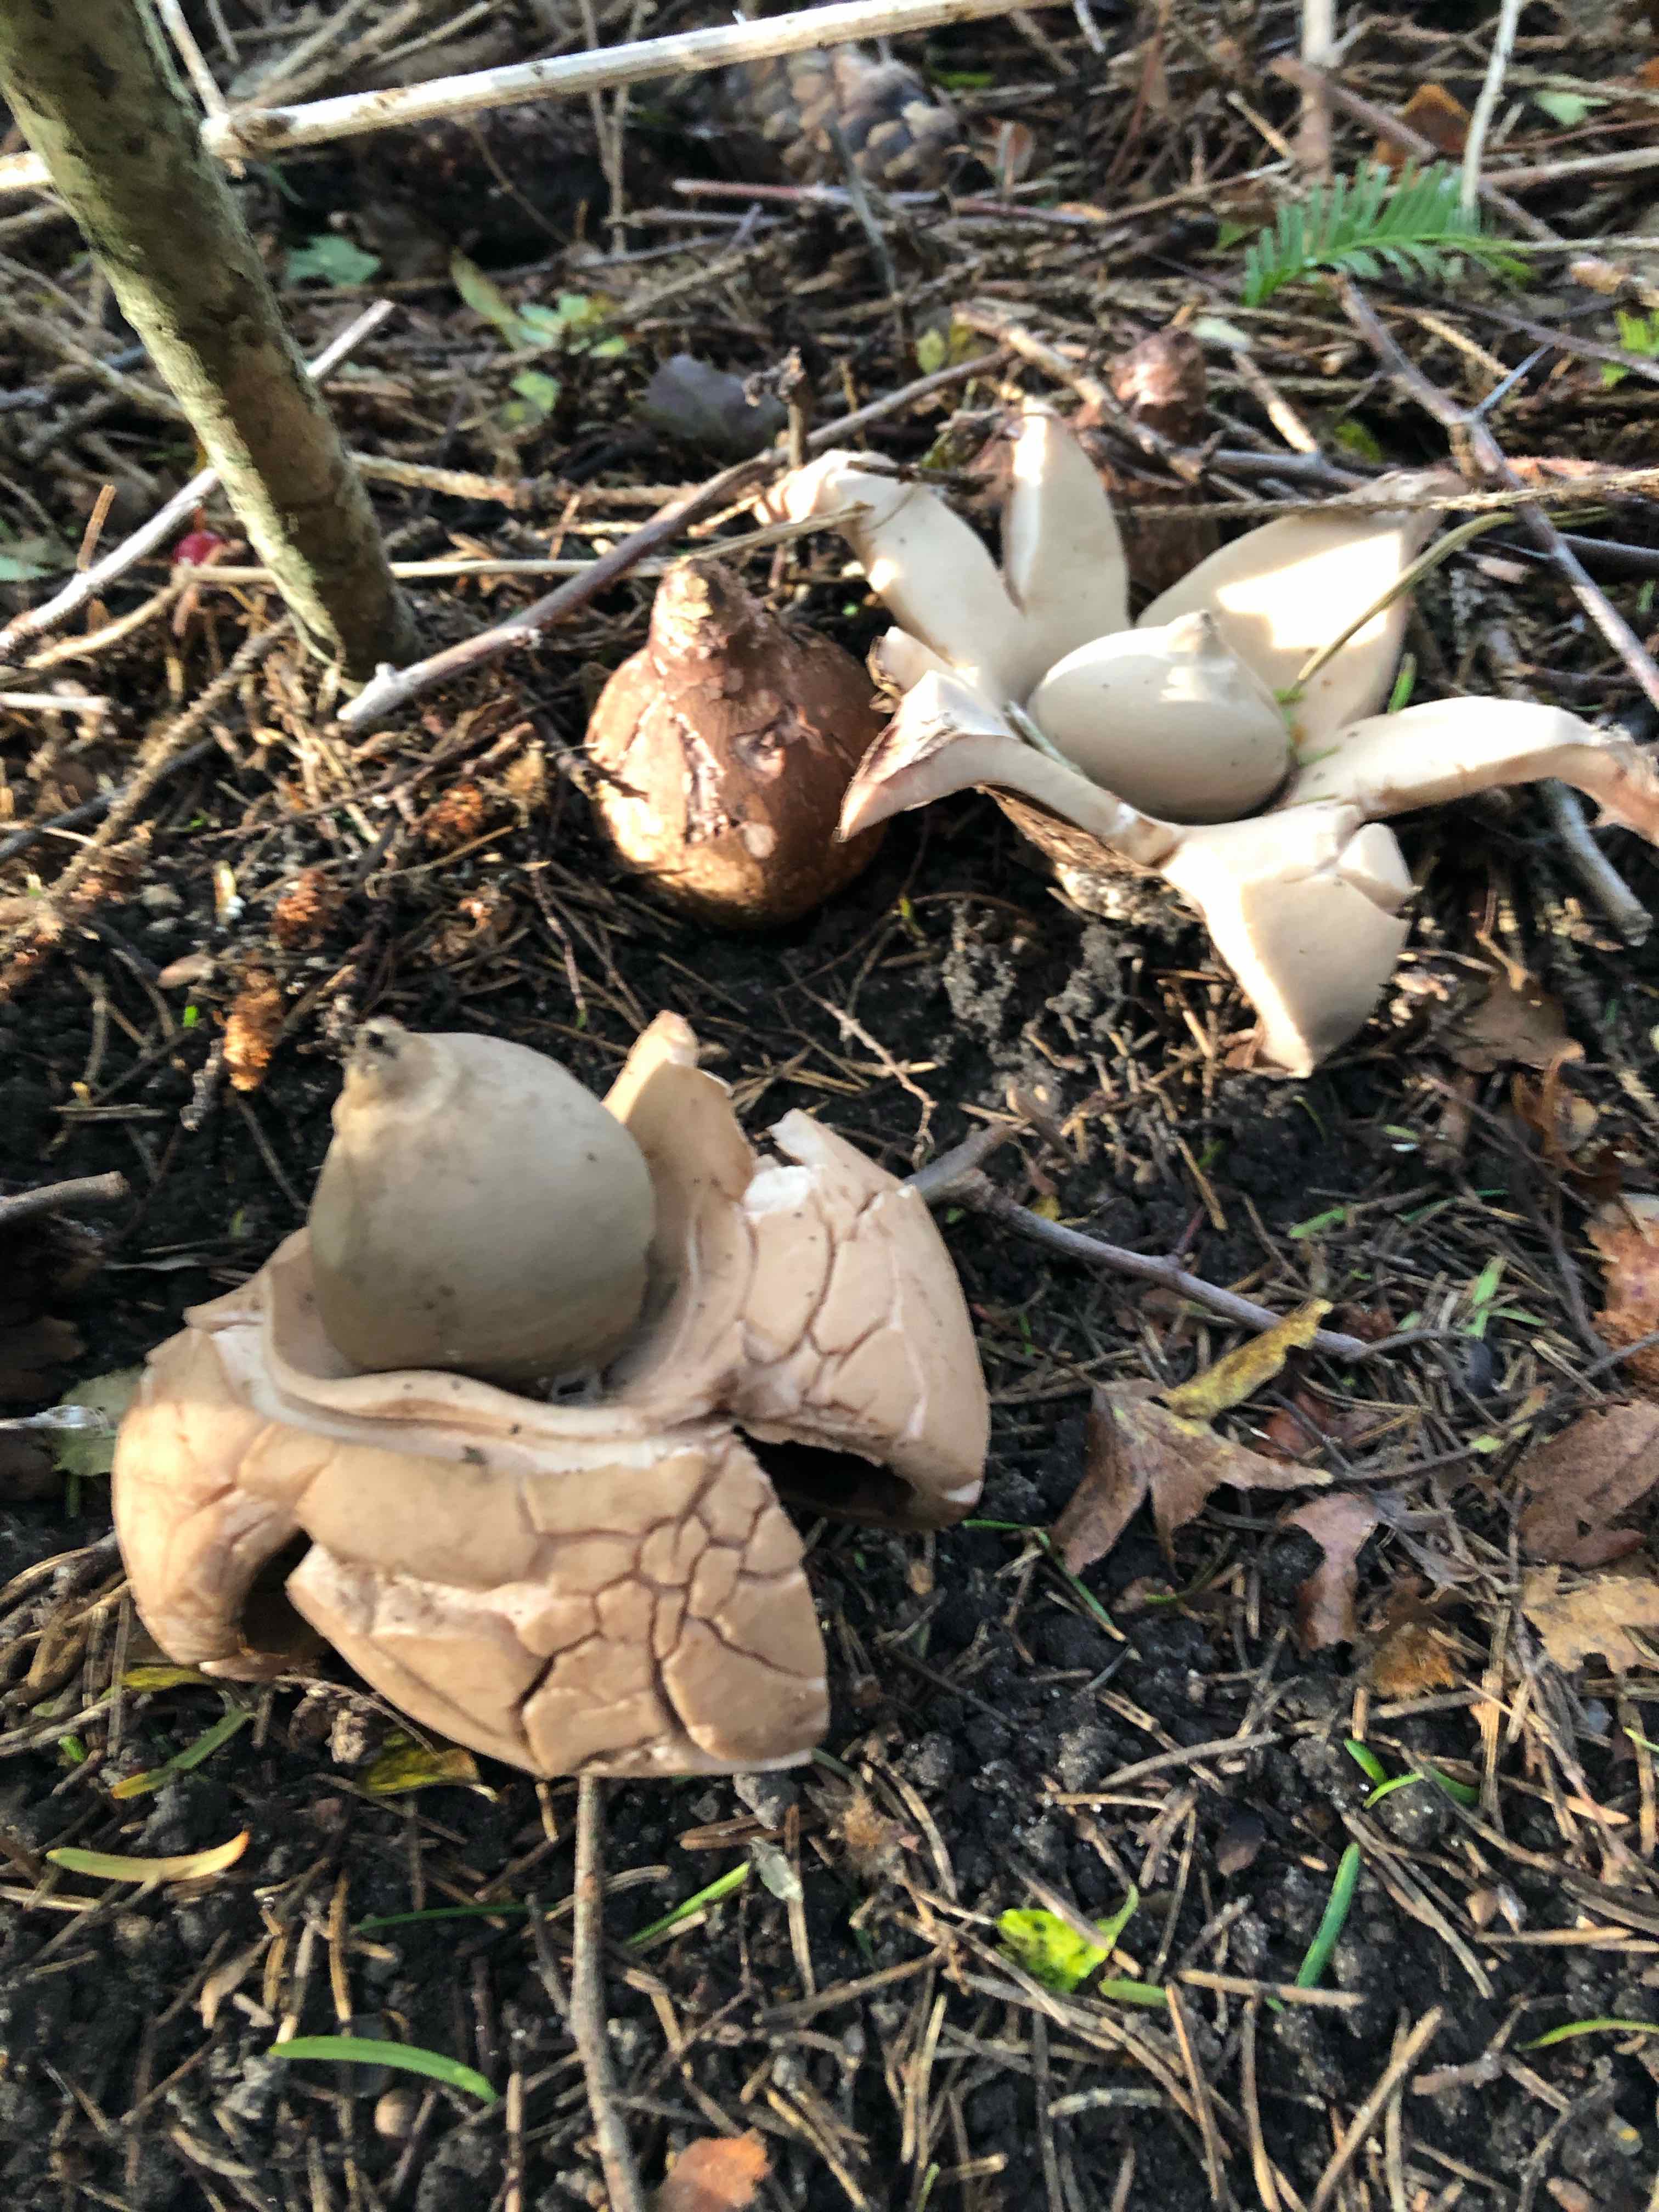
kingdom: Fungi
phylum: Basidiomycota
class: Agaricomycetes
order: Geastrales
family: Geastraceae
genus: Geastrum
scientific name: Geastrum michelianum
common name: kødet stjernebold
